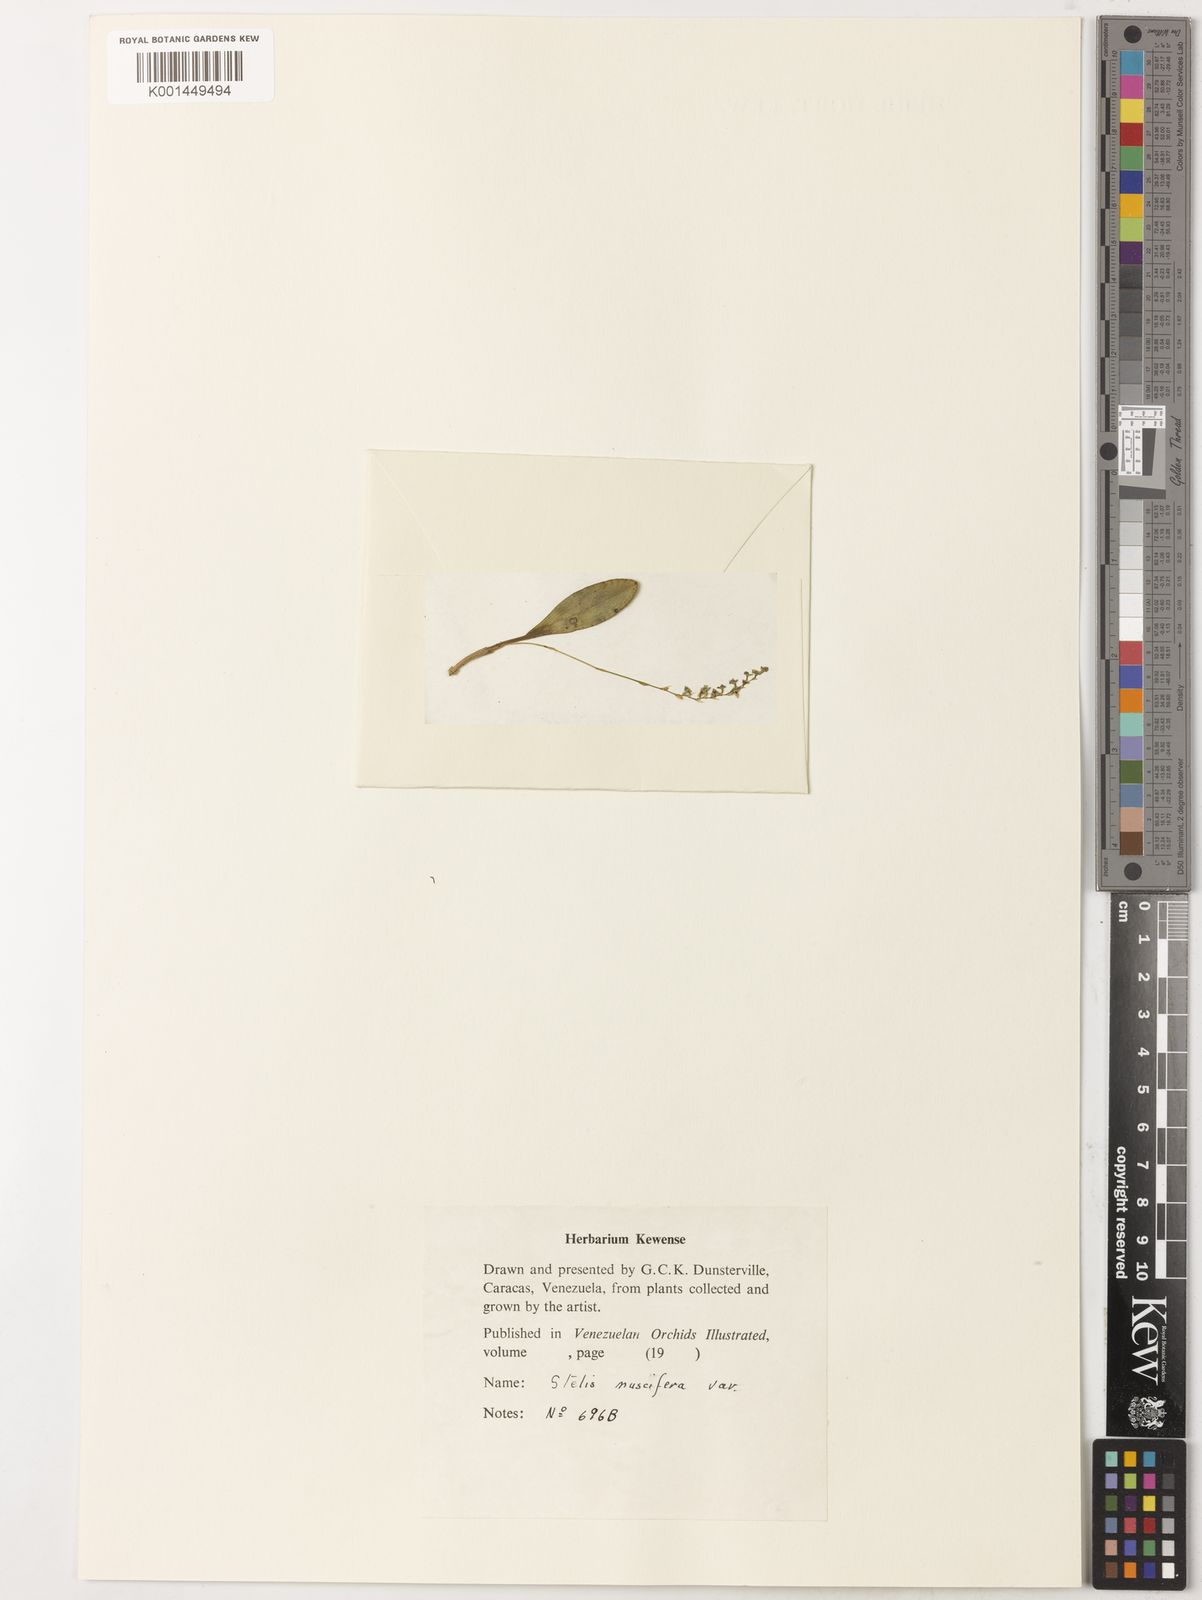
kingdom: Plantae
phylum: Tracheophyta
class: Liliopsida
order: Asparagales
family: Orchidaceae
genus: Stelis
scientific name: Stelis grandiflora
